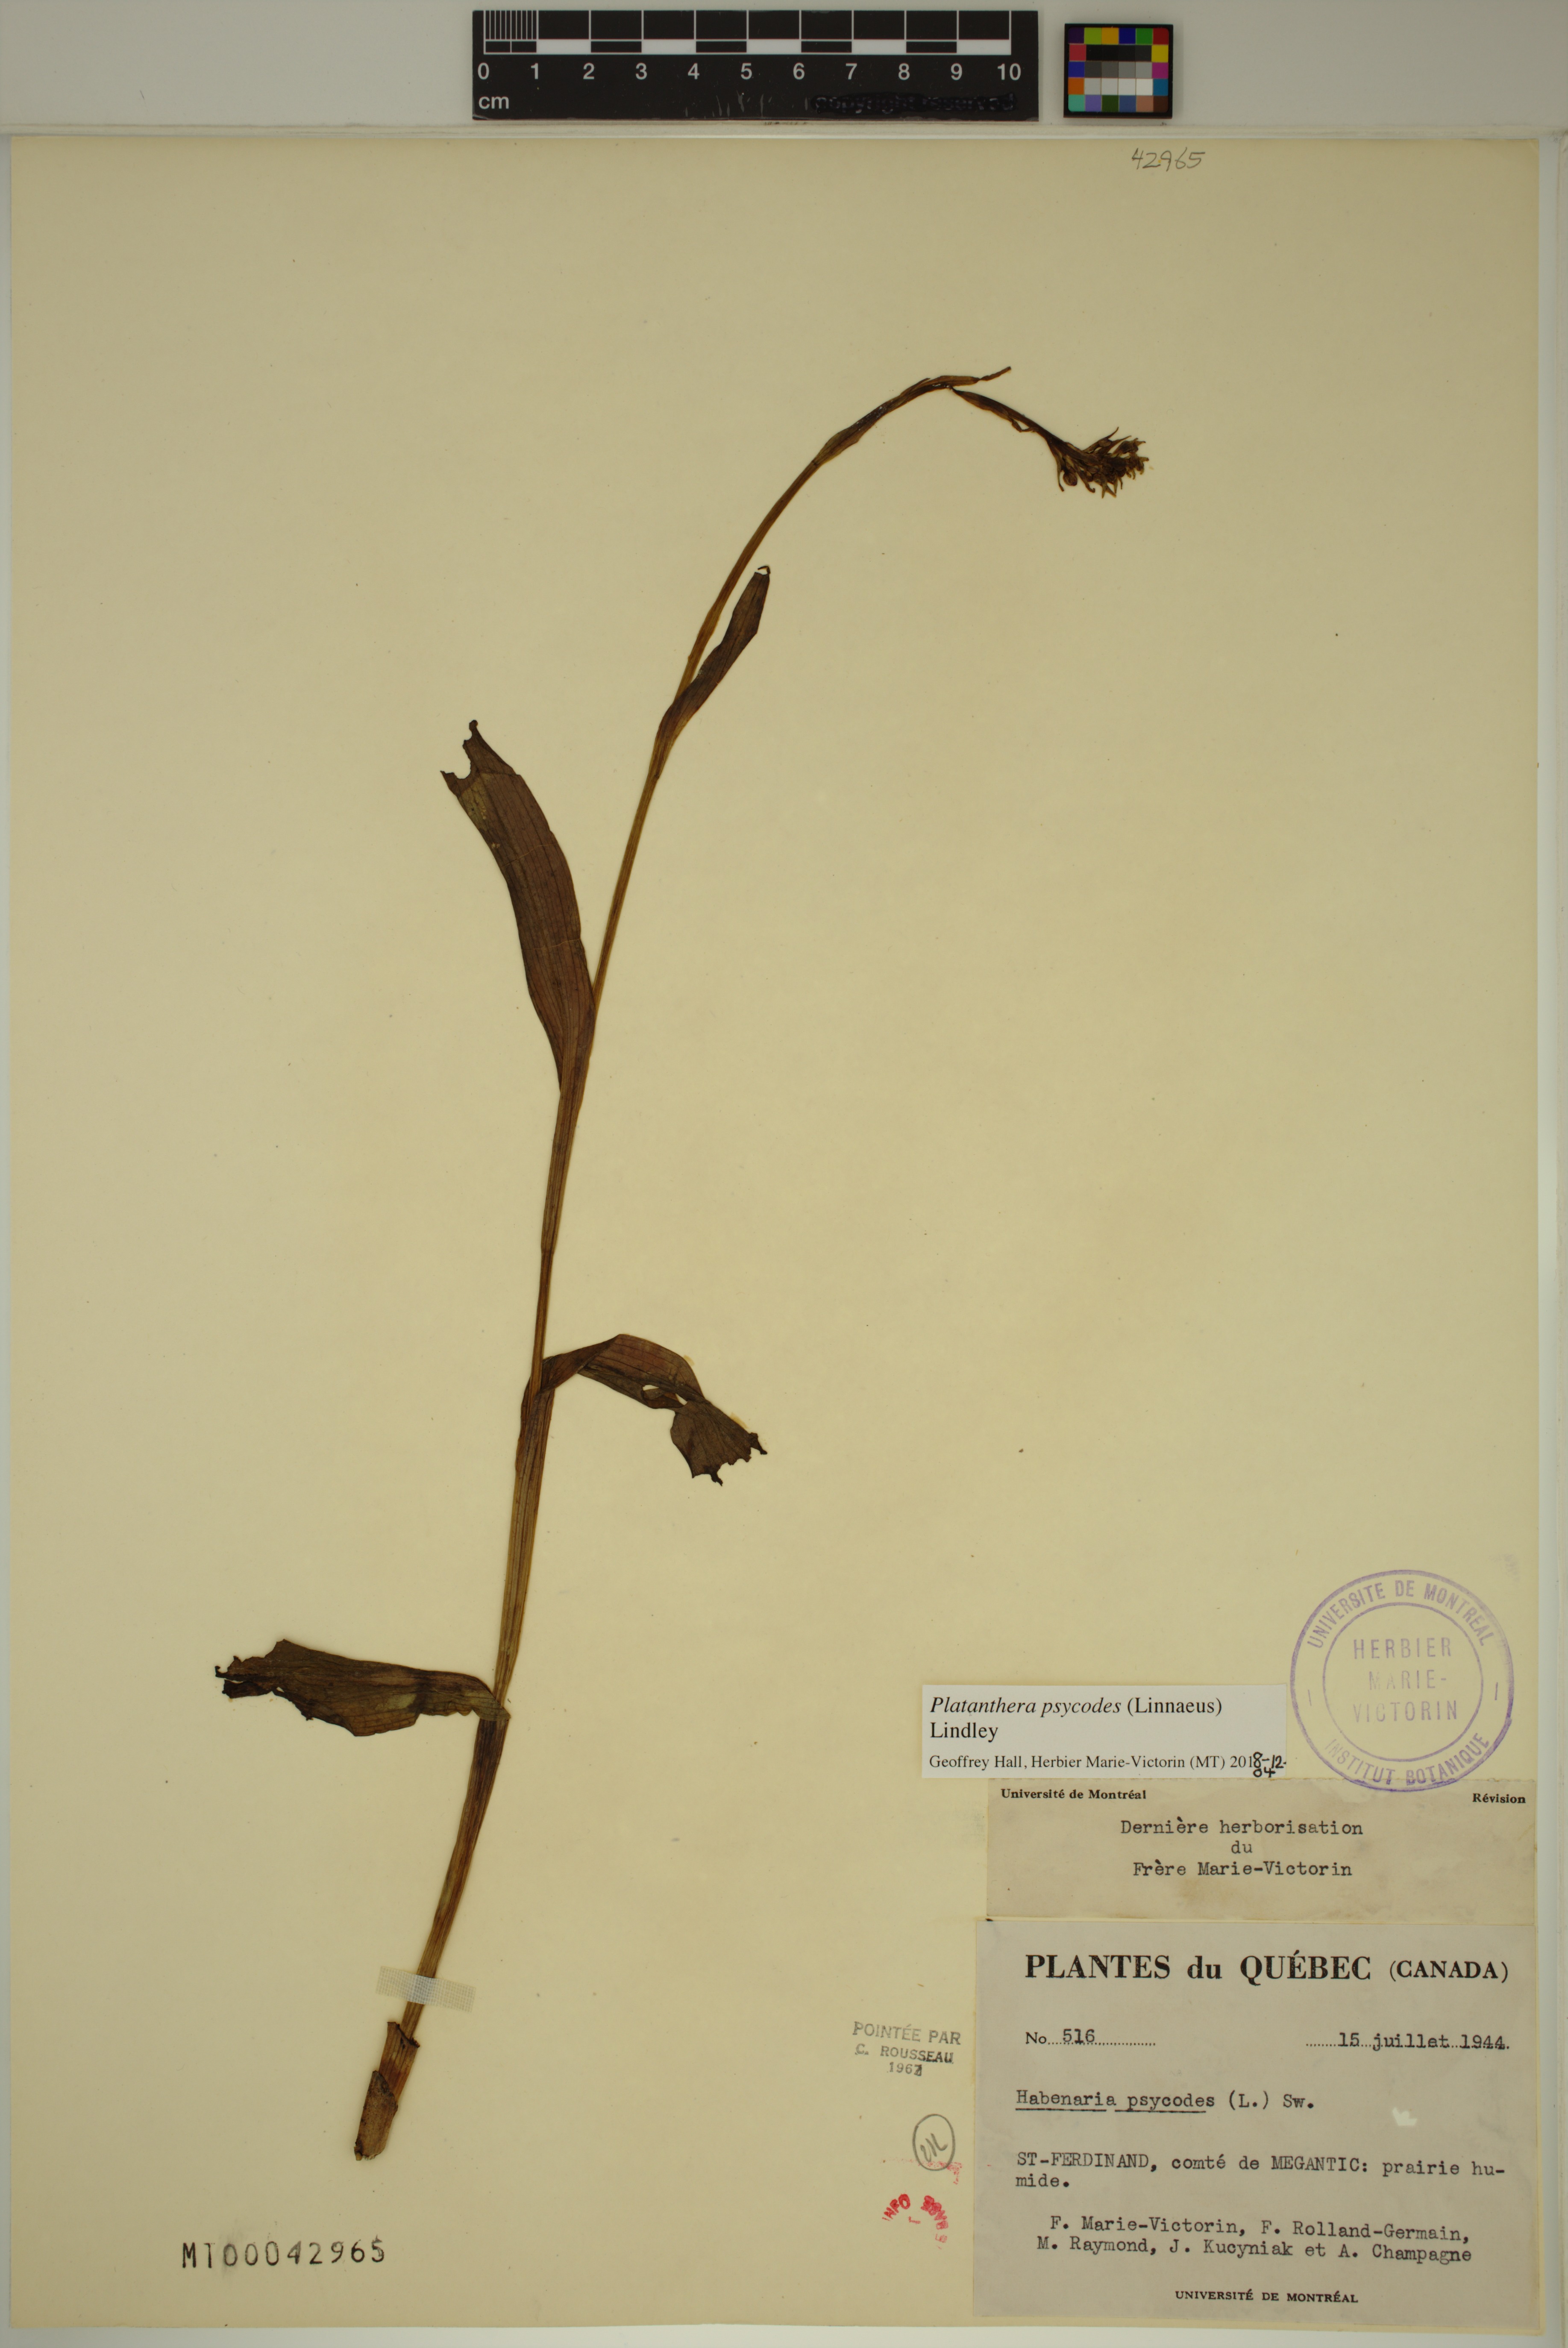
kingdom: Plantae
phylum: Tracheophyta
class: Liliopsida
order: Asparagales
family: Orchidaceae
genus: Platanthera
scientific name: Platanthera psycodes
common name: Lesser purple fringed orchid
